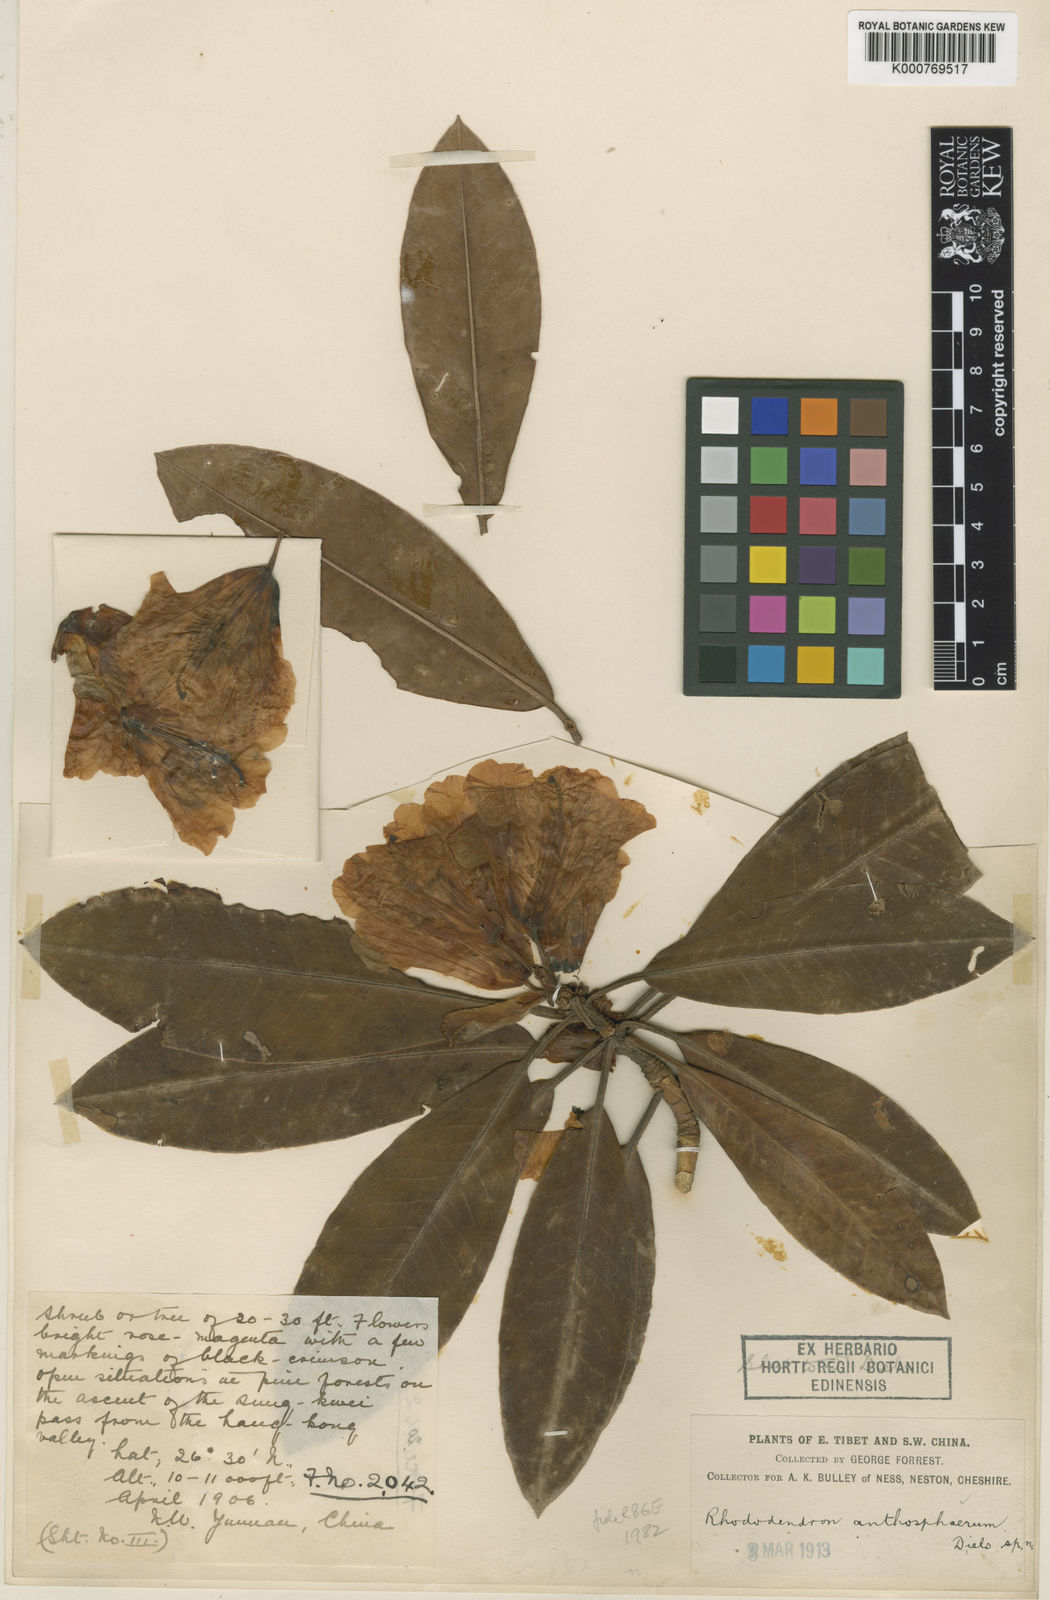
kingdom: Plantae
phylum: Tracheophyta
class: Magnoliopsida
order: Ericales
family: Ericaceae
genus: Rhododendron
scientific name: Rhododendron anthosphaerum
